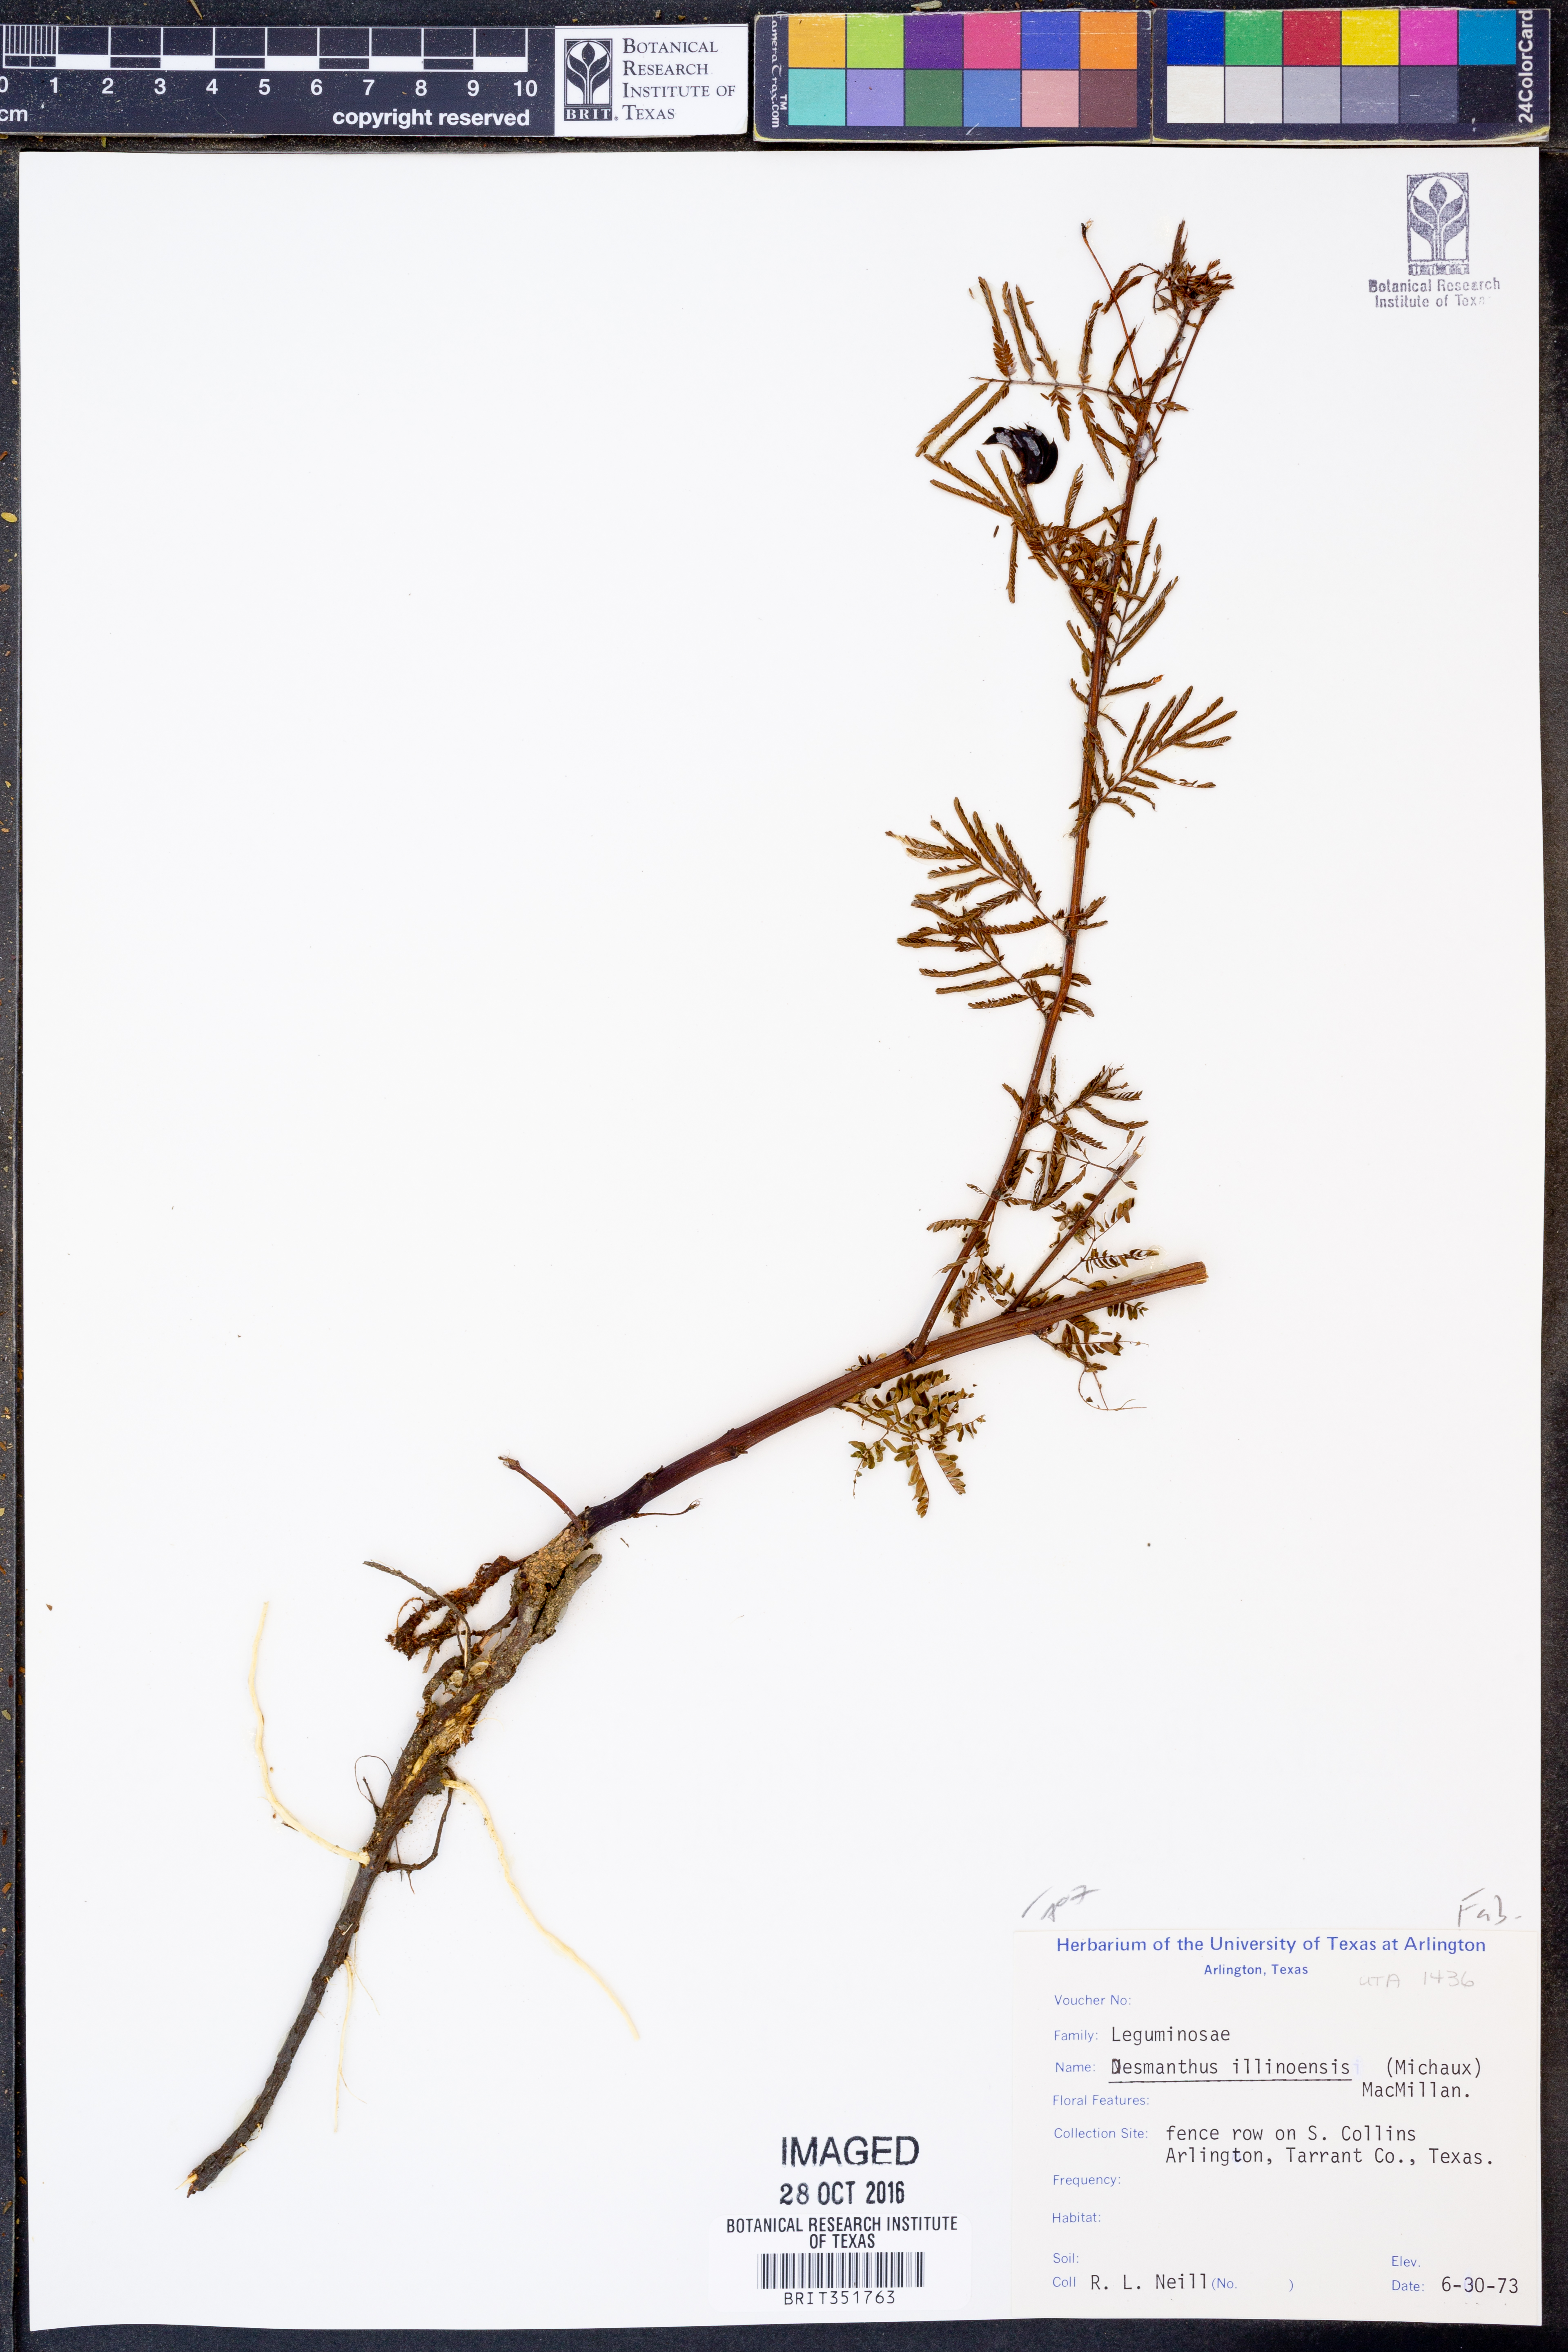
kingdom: Plantae
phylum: Tracheophyta
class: Magnoliopsida
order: Fabales
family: Fabaceae
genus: Desmanthus
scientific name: Desmanthus illinoensis
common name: Illinois bundle-flower
